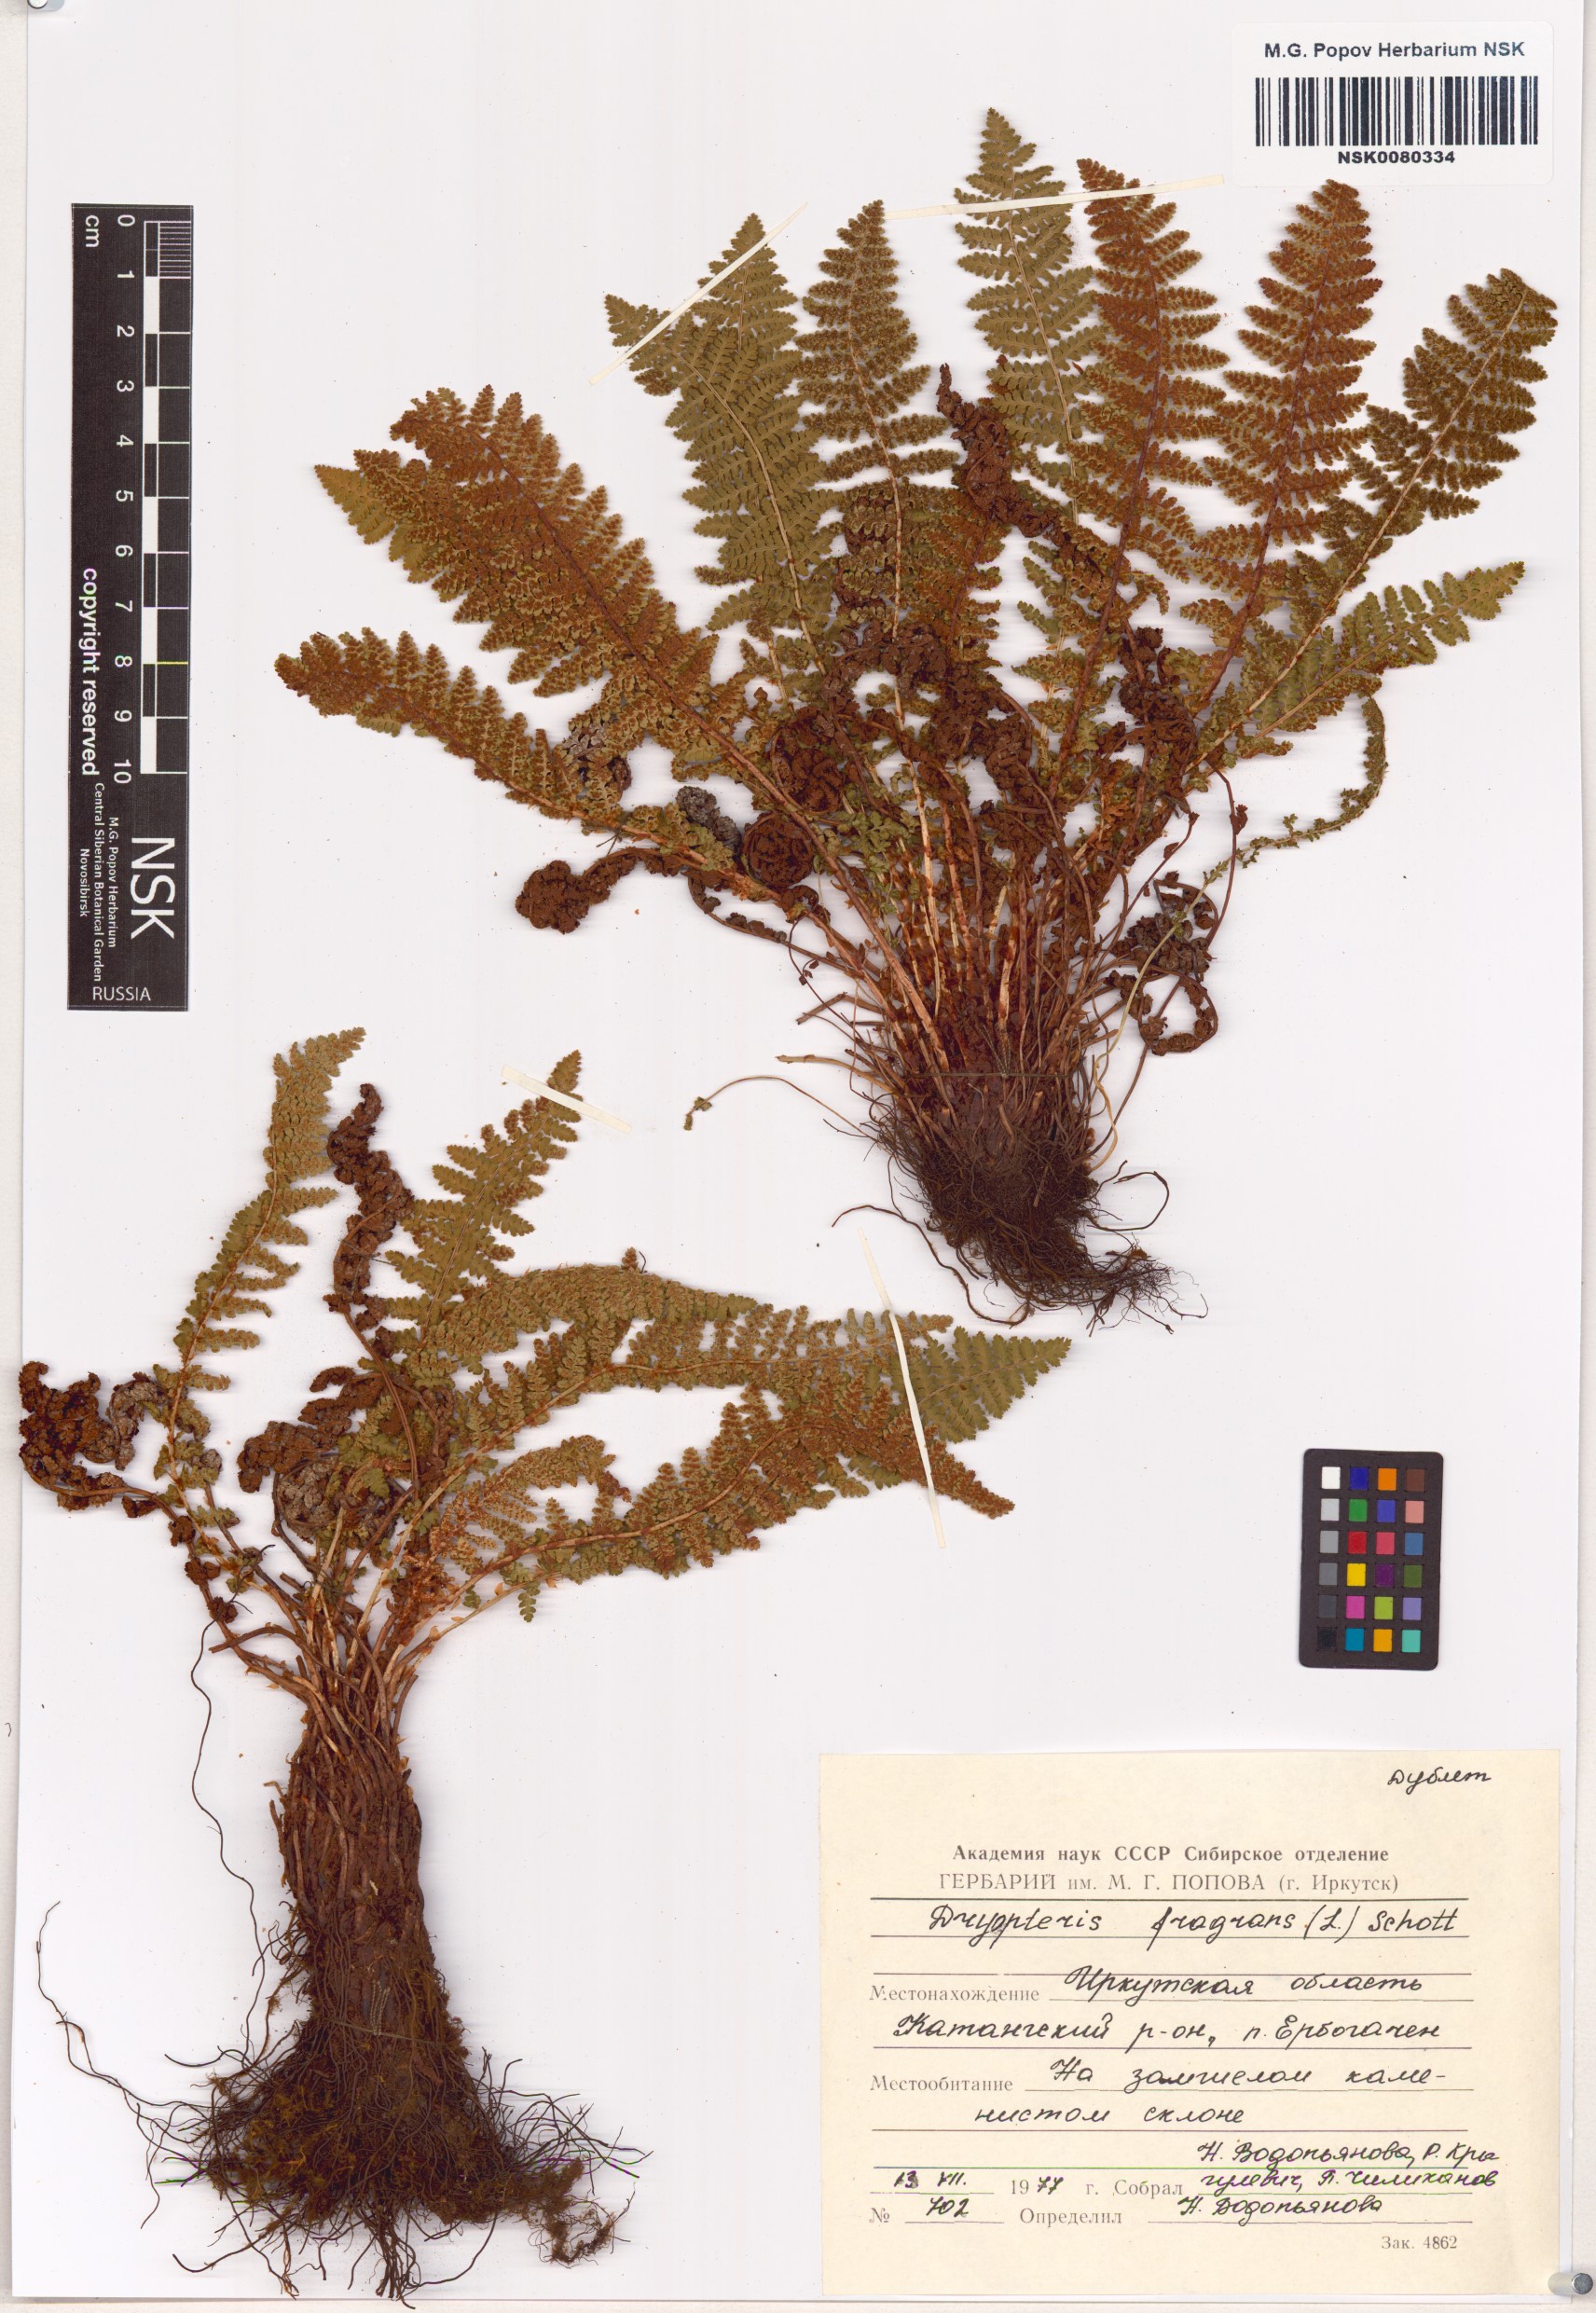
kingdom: Plantae
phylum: Tracheophyta
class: Polypodiopsida
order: Polypodiales
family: Dryopteridaceae
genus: Dryopteris
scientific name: Dryopteris fragrans
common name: Fragrant wood fern
